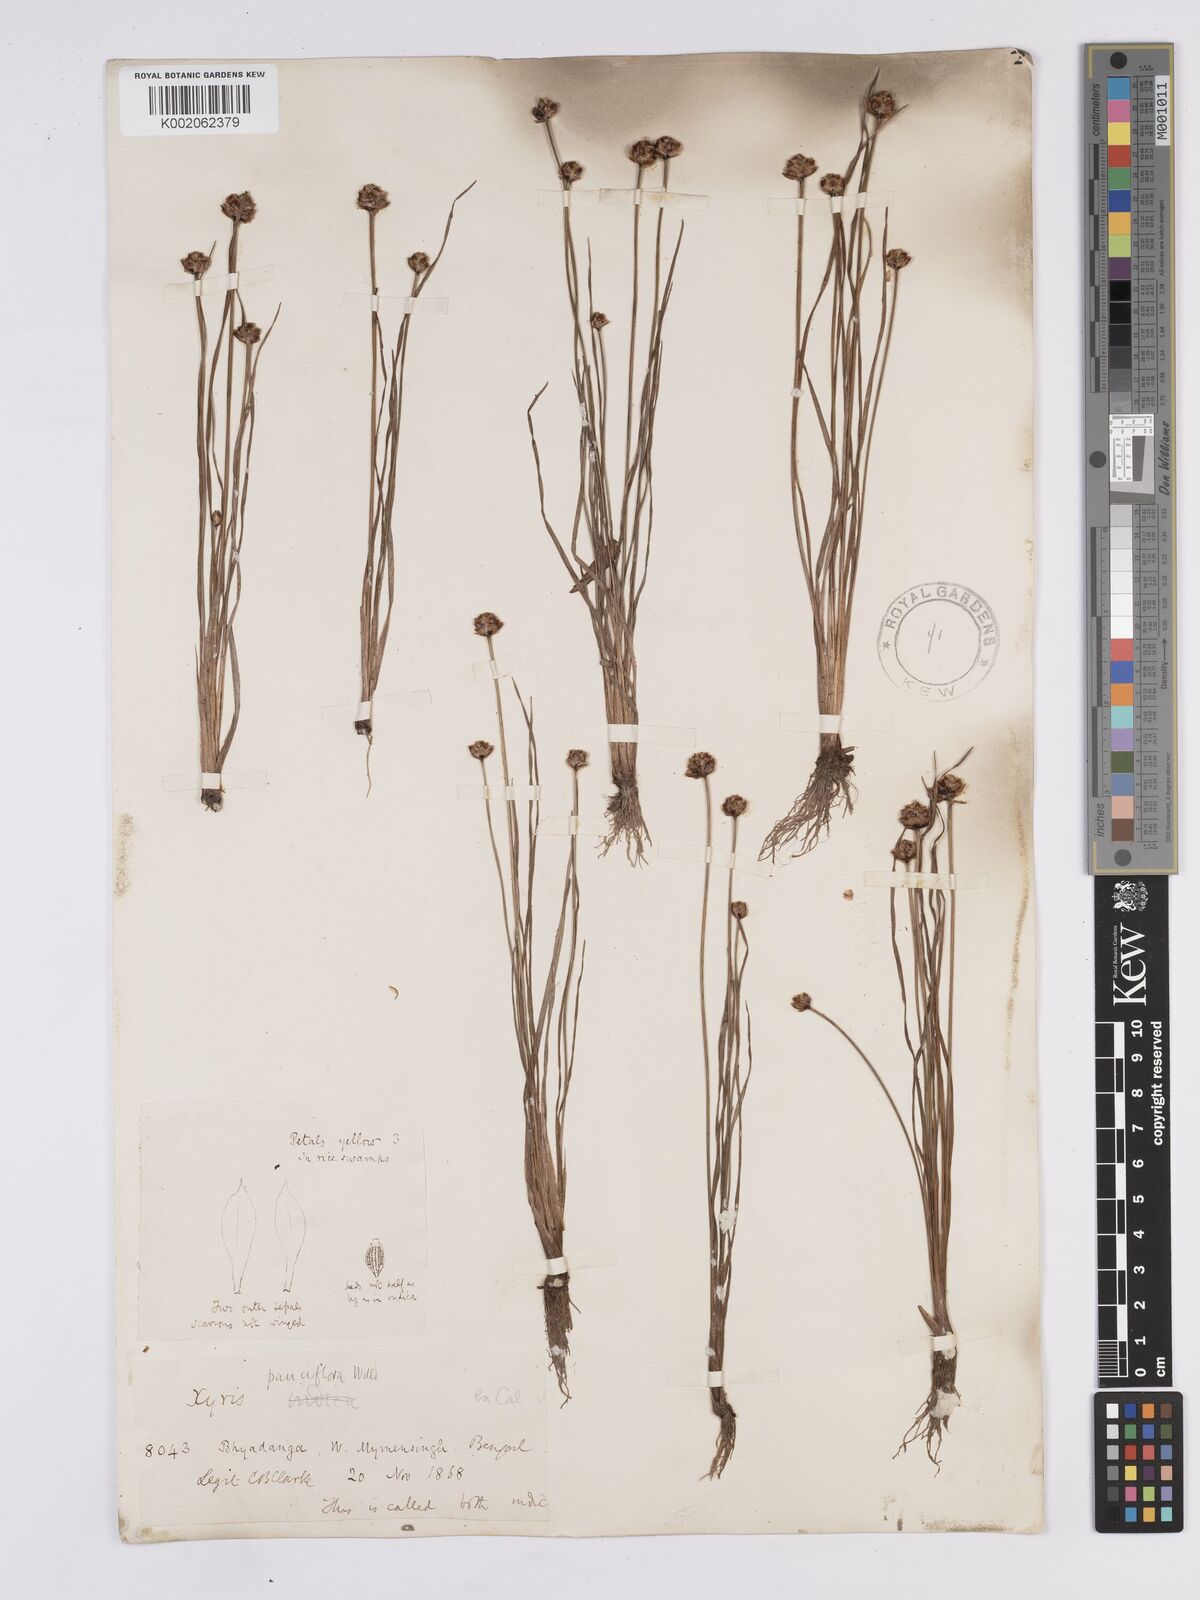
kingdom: Plantae
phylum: Tracheophyta
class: Liliopsida
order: Poales
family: Xyridaceae
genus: Xyris
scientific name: Xyris pauciflora
